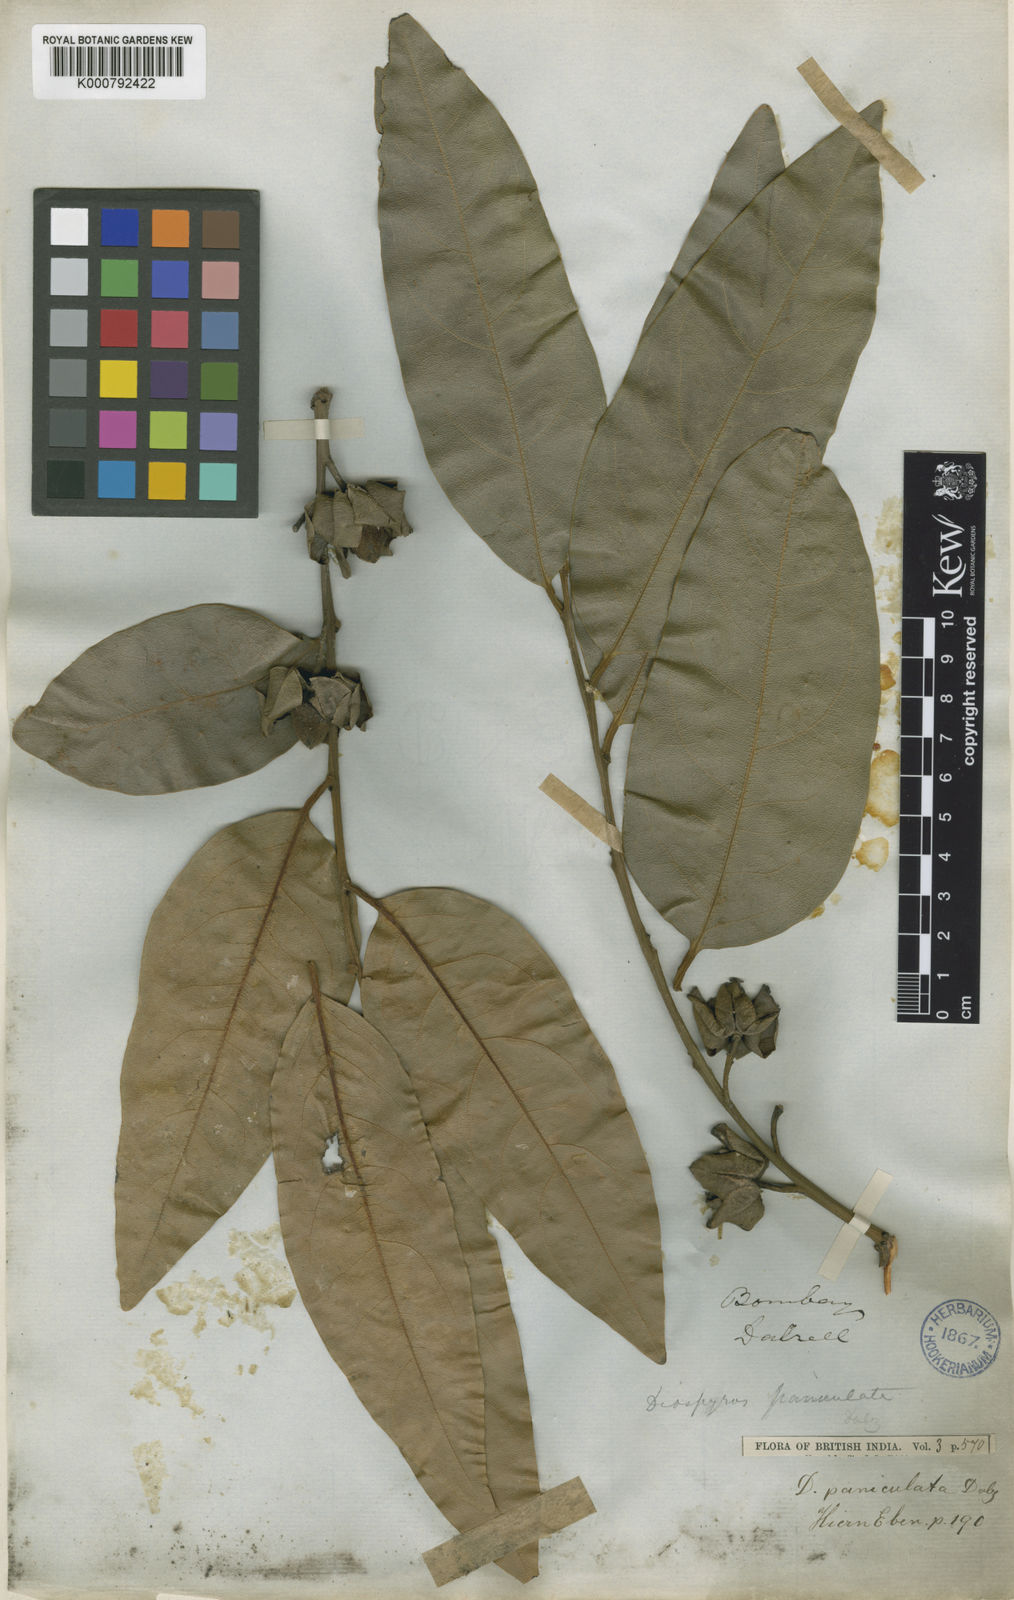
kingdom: Plantae
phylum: Tracheophyta
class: Magnoliopsida
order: Ericales
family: Ebenaceae
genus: Diospyros
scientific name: Diospyros paniculata
